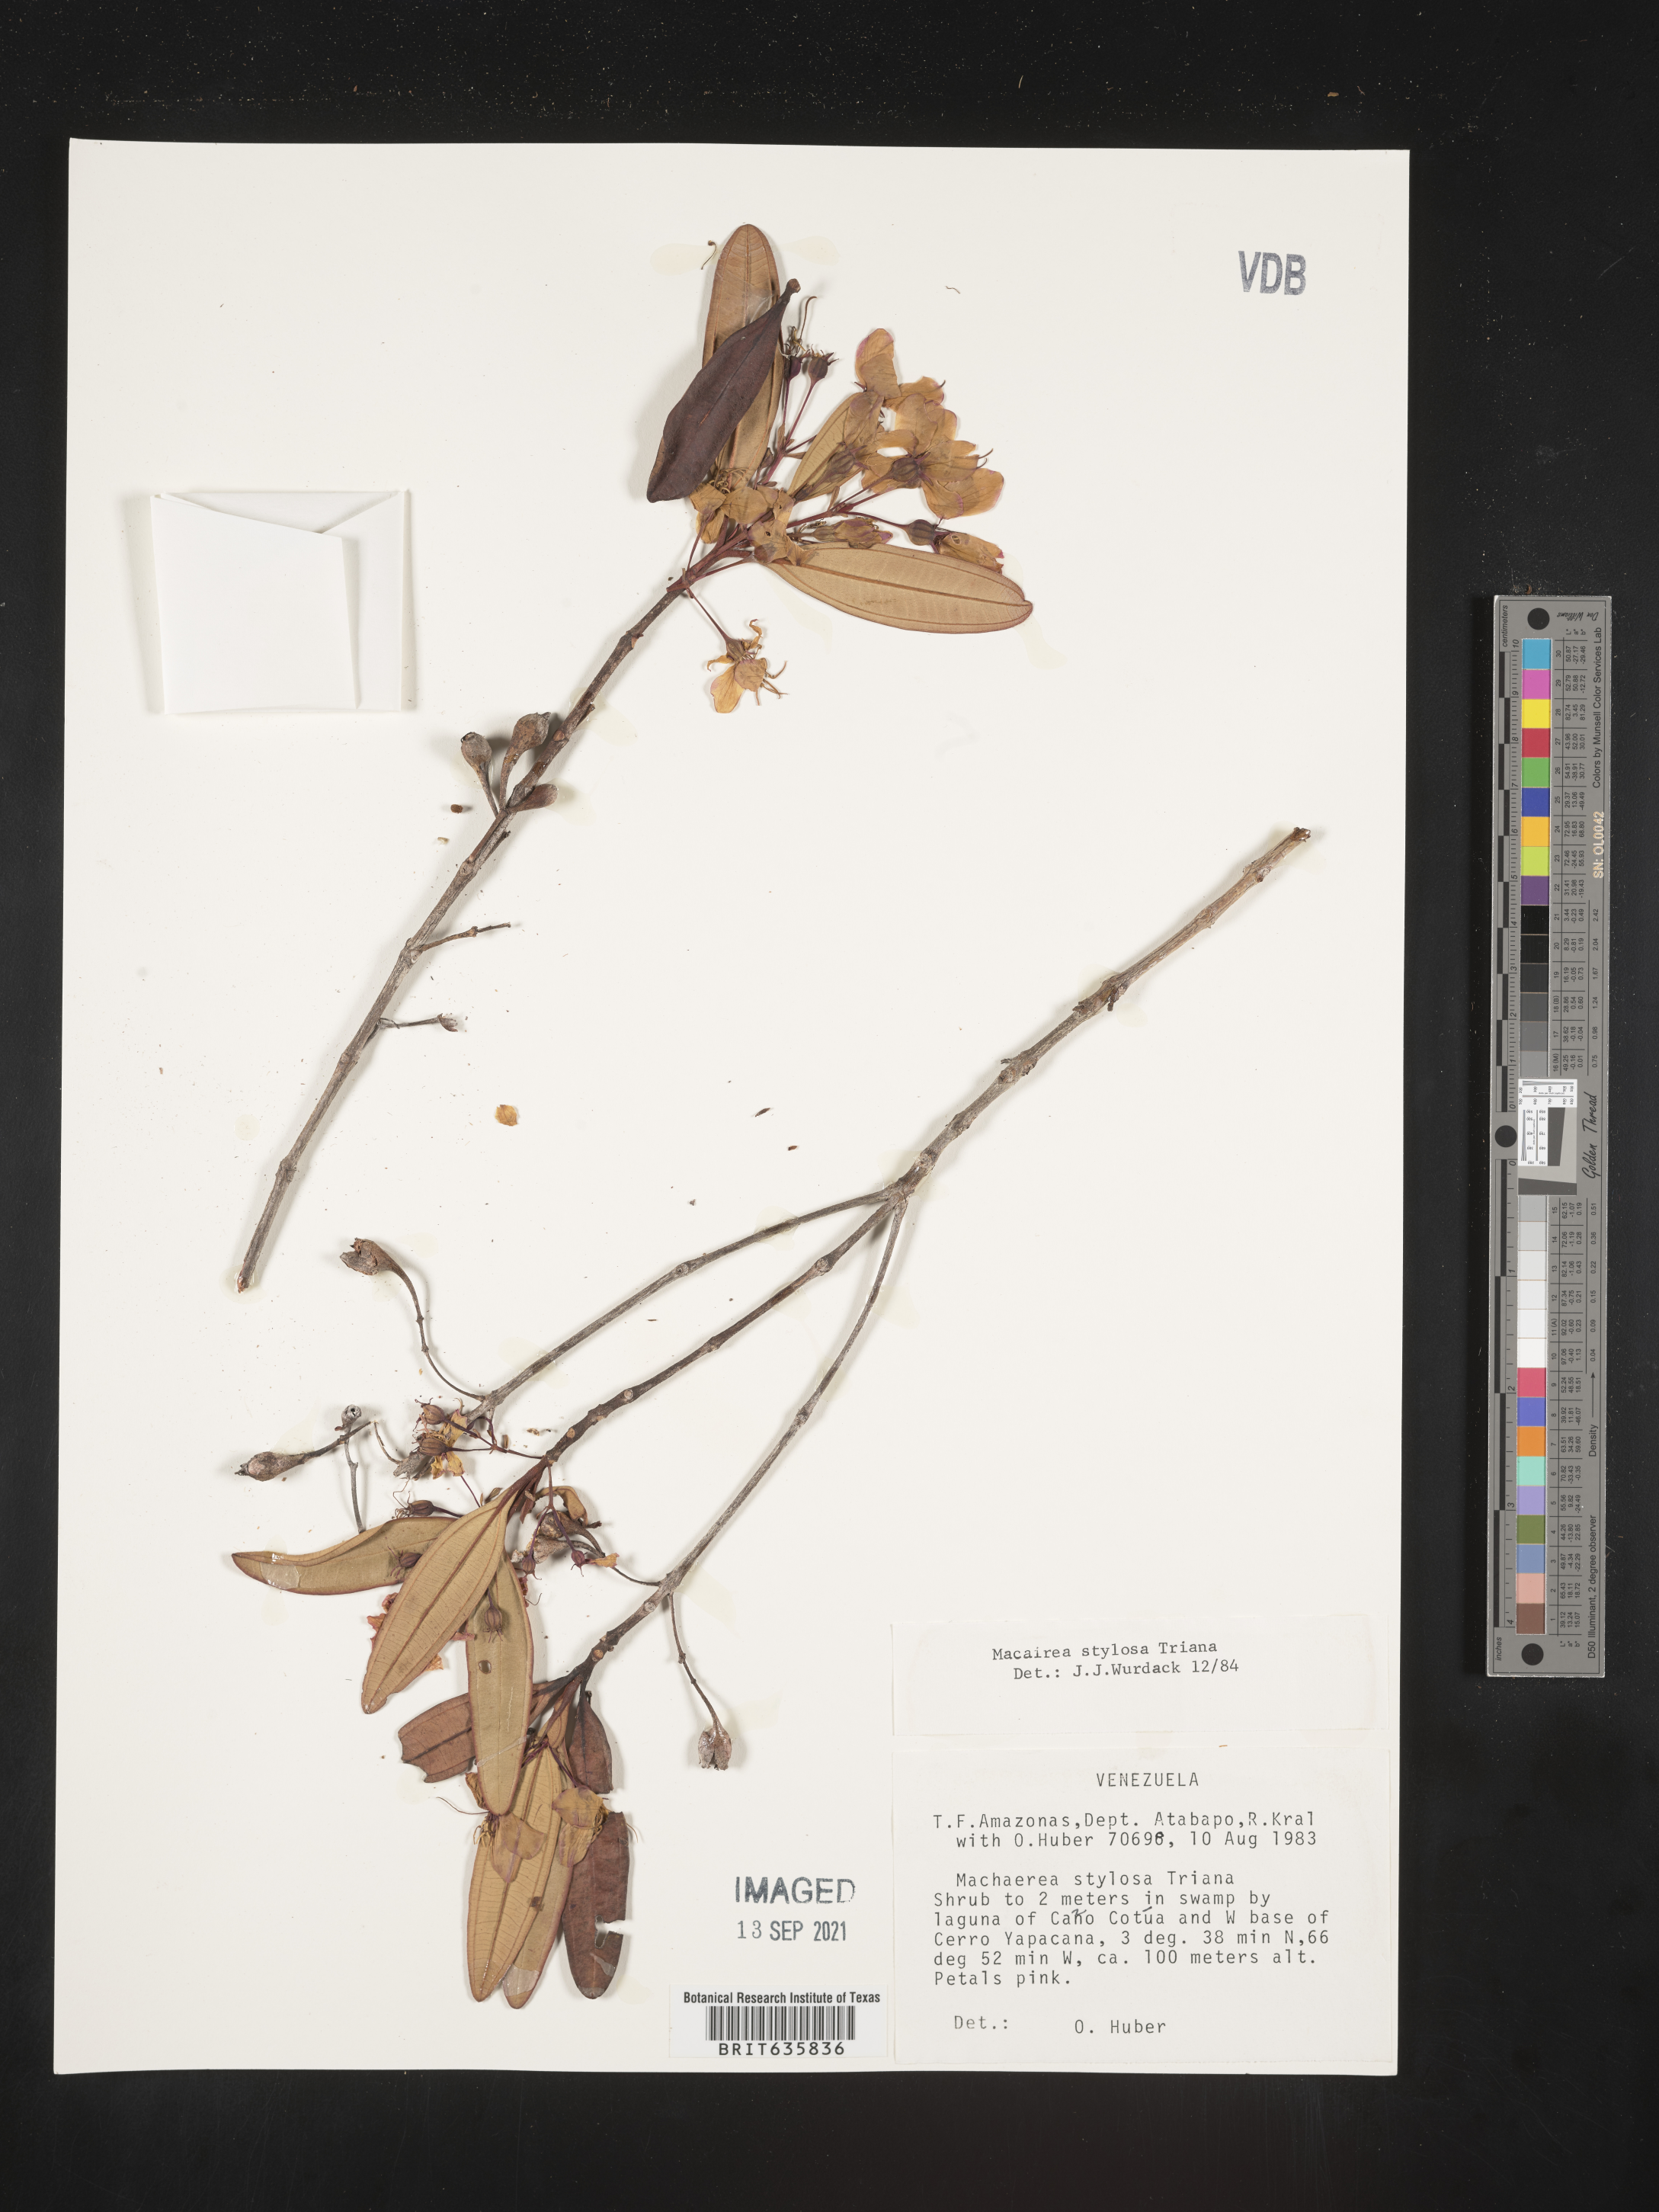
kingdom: Plantae
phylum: Tracheophyta
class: Magnoliopsida
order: Myrtales
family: Melastomataceae
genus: Macairea
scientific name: Macairea
